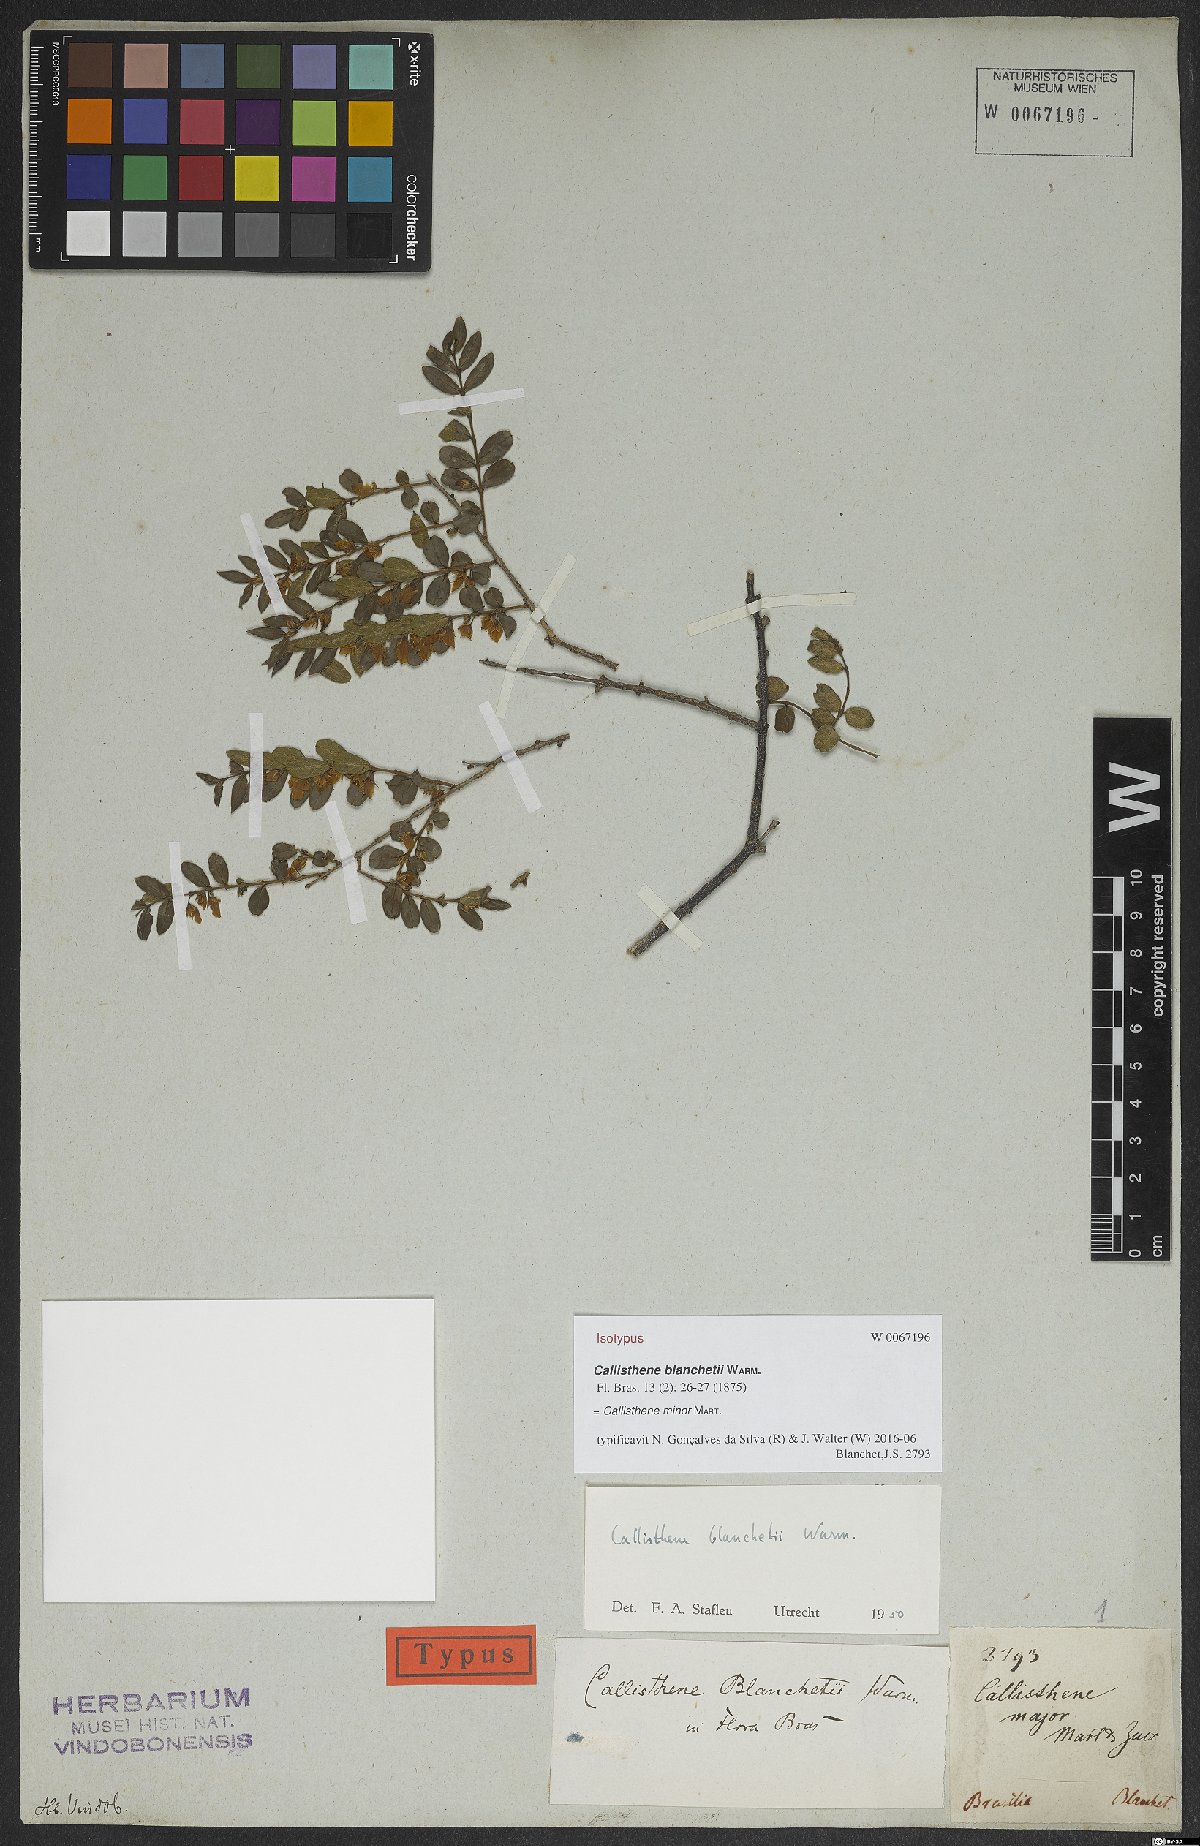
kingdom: Plantae
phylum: Tracheophyta
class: Magnoliopsida
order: Myrtales
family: Vochysiaceae
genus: Callisthene
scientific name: Callisthene minor
